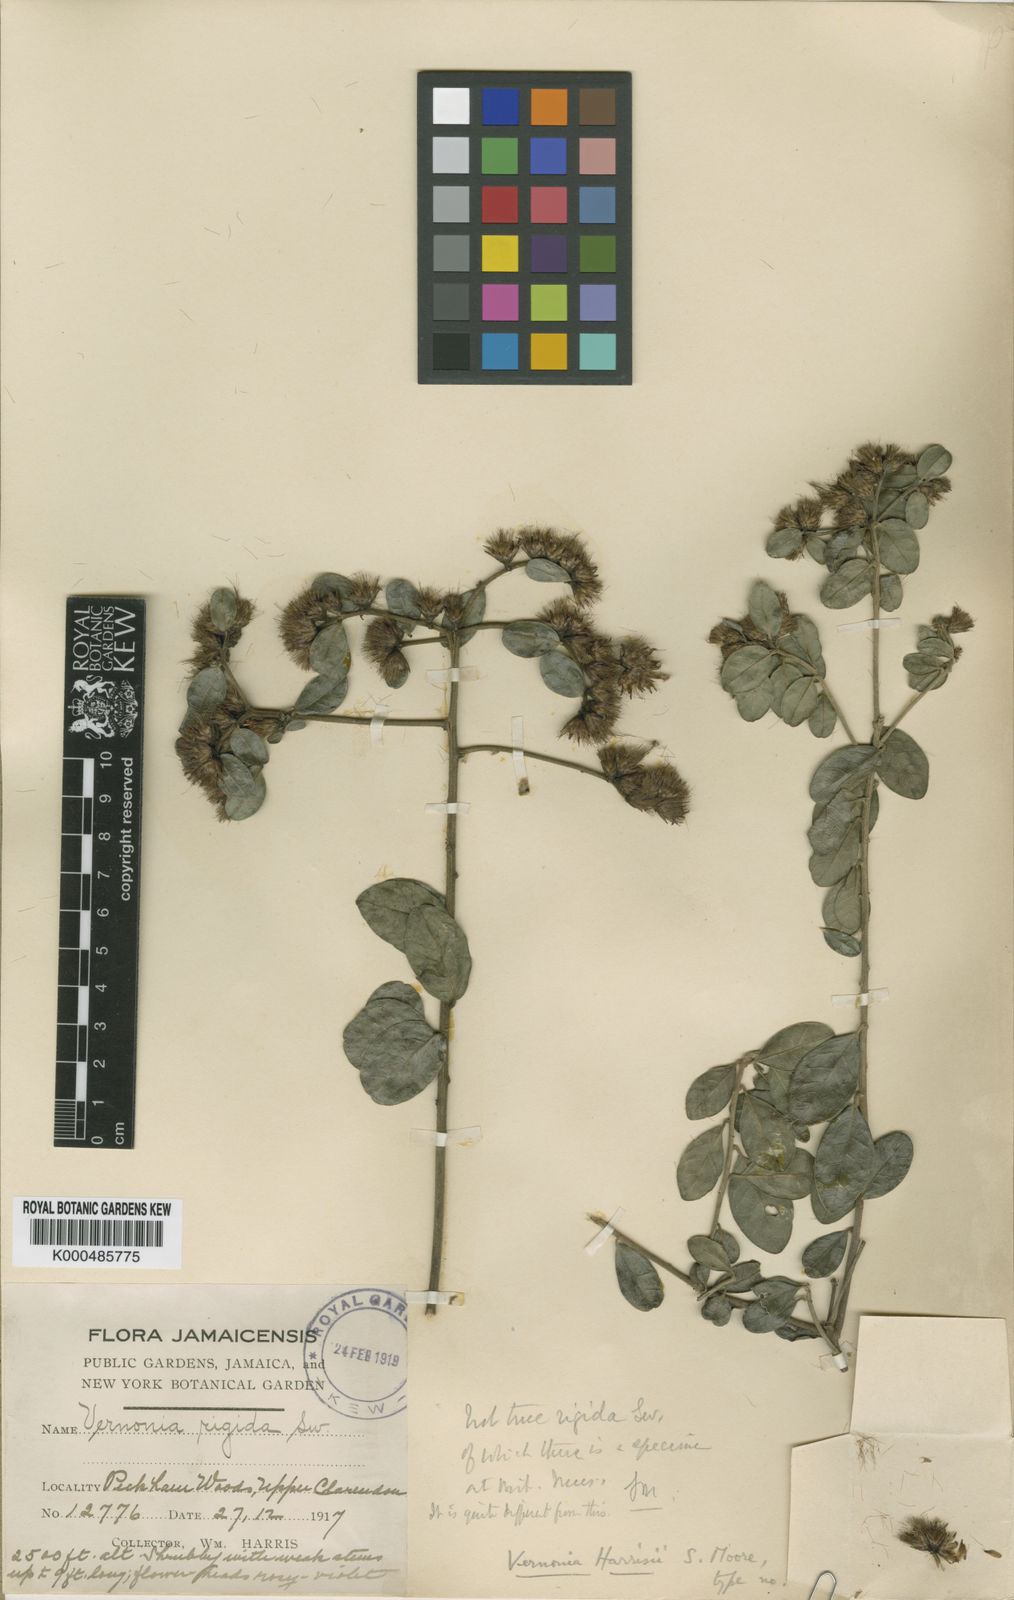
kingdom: Plantae
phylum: Tracheophyta
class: Magnoliopsida
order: Asterales
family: Asteraceae
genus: Lepidaploa
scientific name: Lepidaploa harrisii
